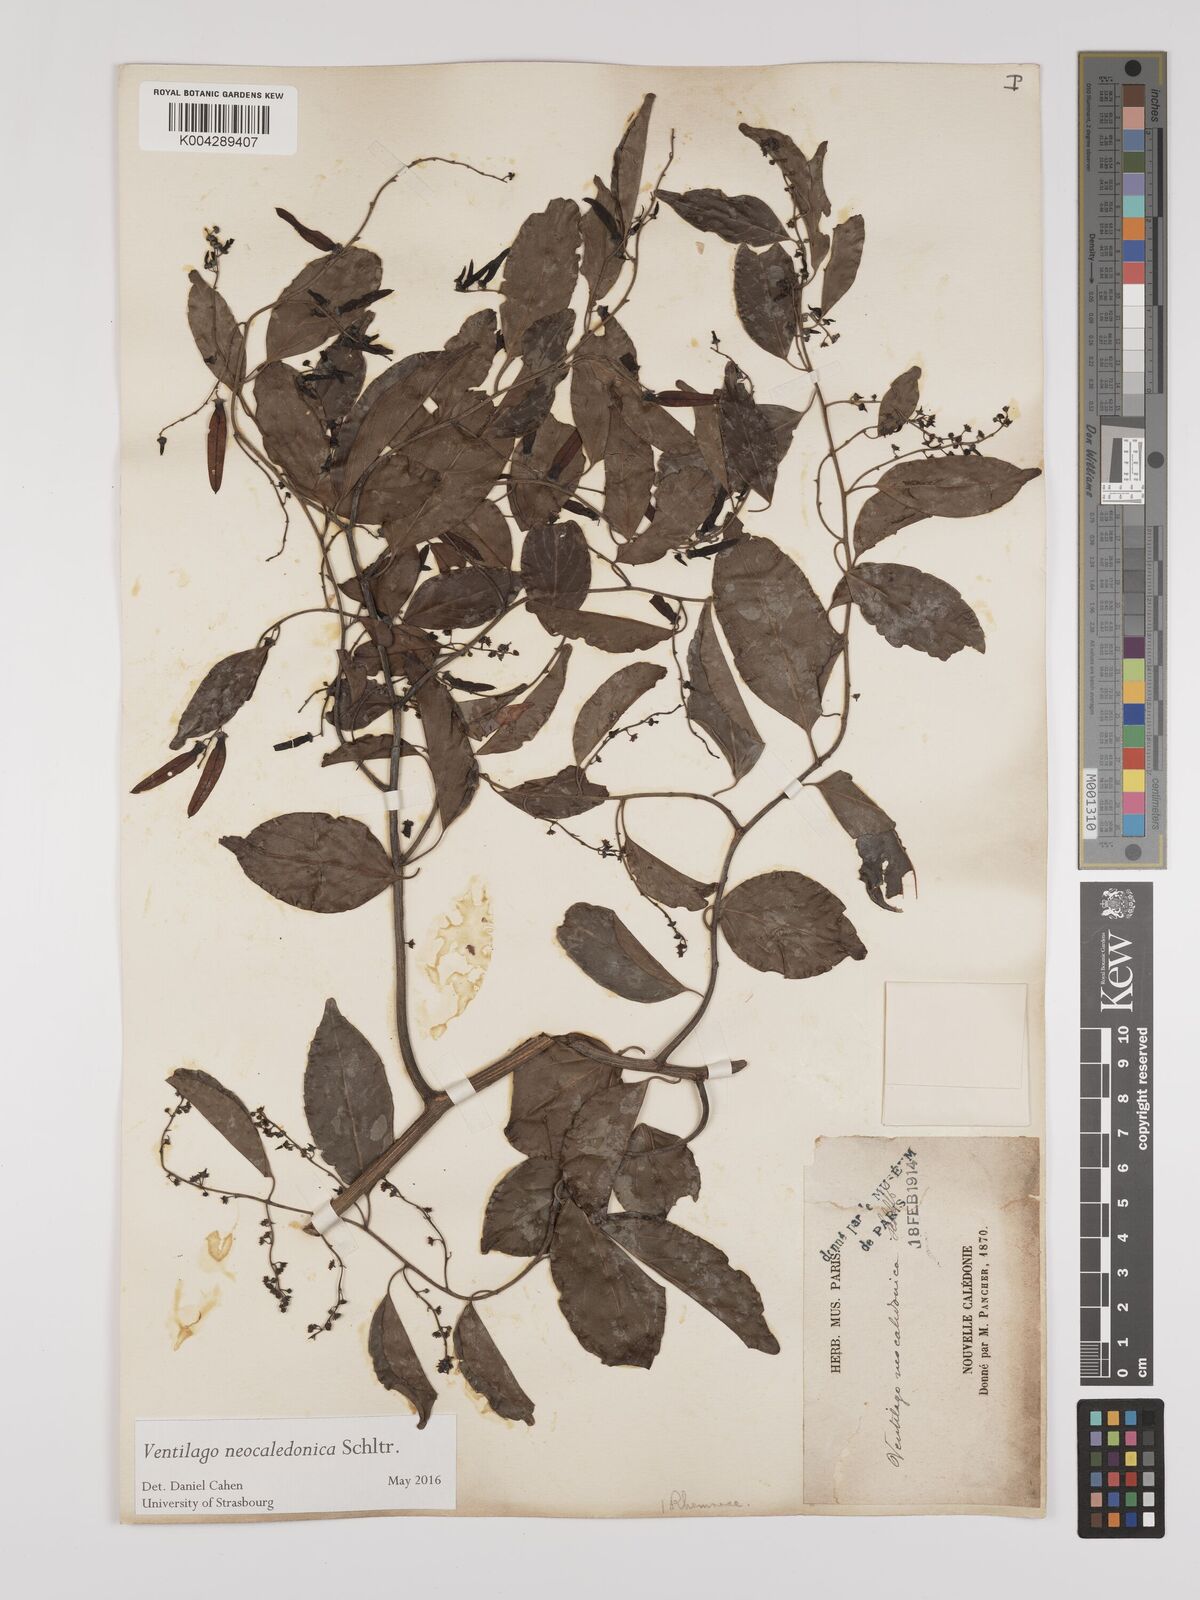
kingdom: Plantae
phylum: Tracheophyta
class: Magnoliopsida
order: Rosales
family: Rhamnaceae
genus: Ventilago
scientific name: Ventilago neocaledonica
